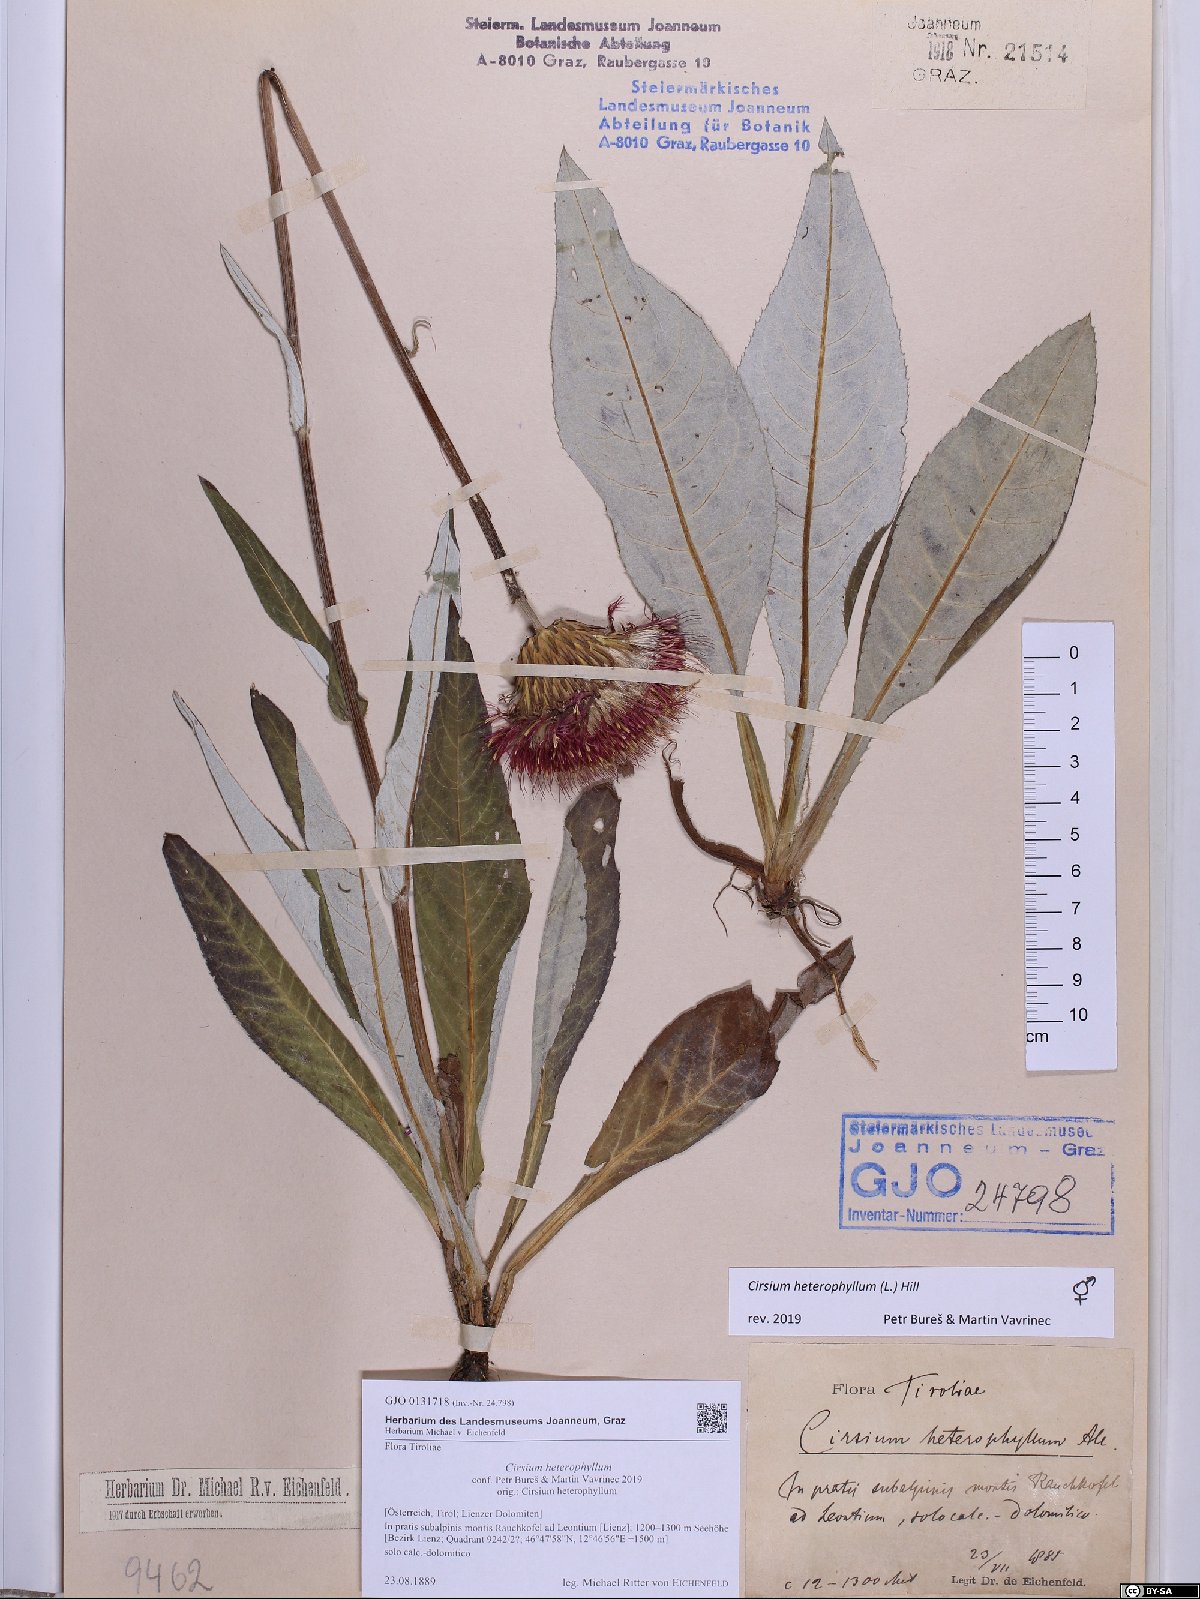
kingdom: Plantae
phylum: Tracheophyta
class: Magnoliopsida
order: Asterales
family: Asteraceae
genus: Cirsium
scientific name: Cirsium heterophyllum
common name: Melancholy thistle
